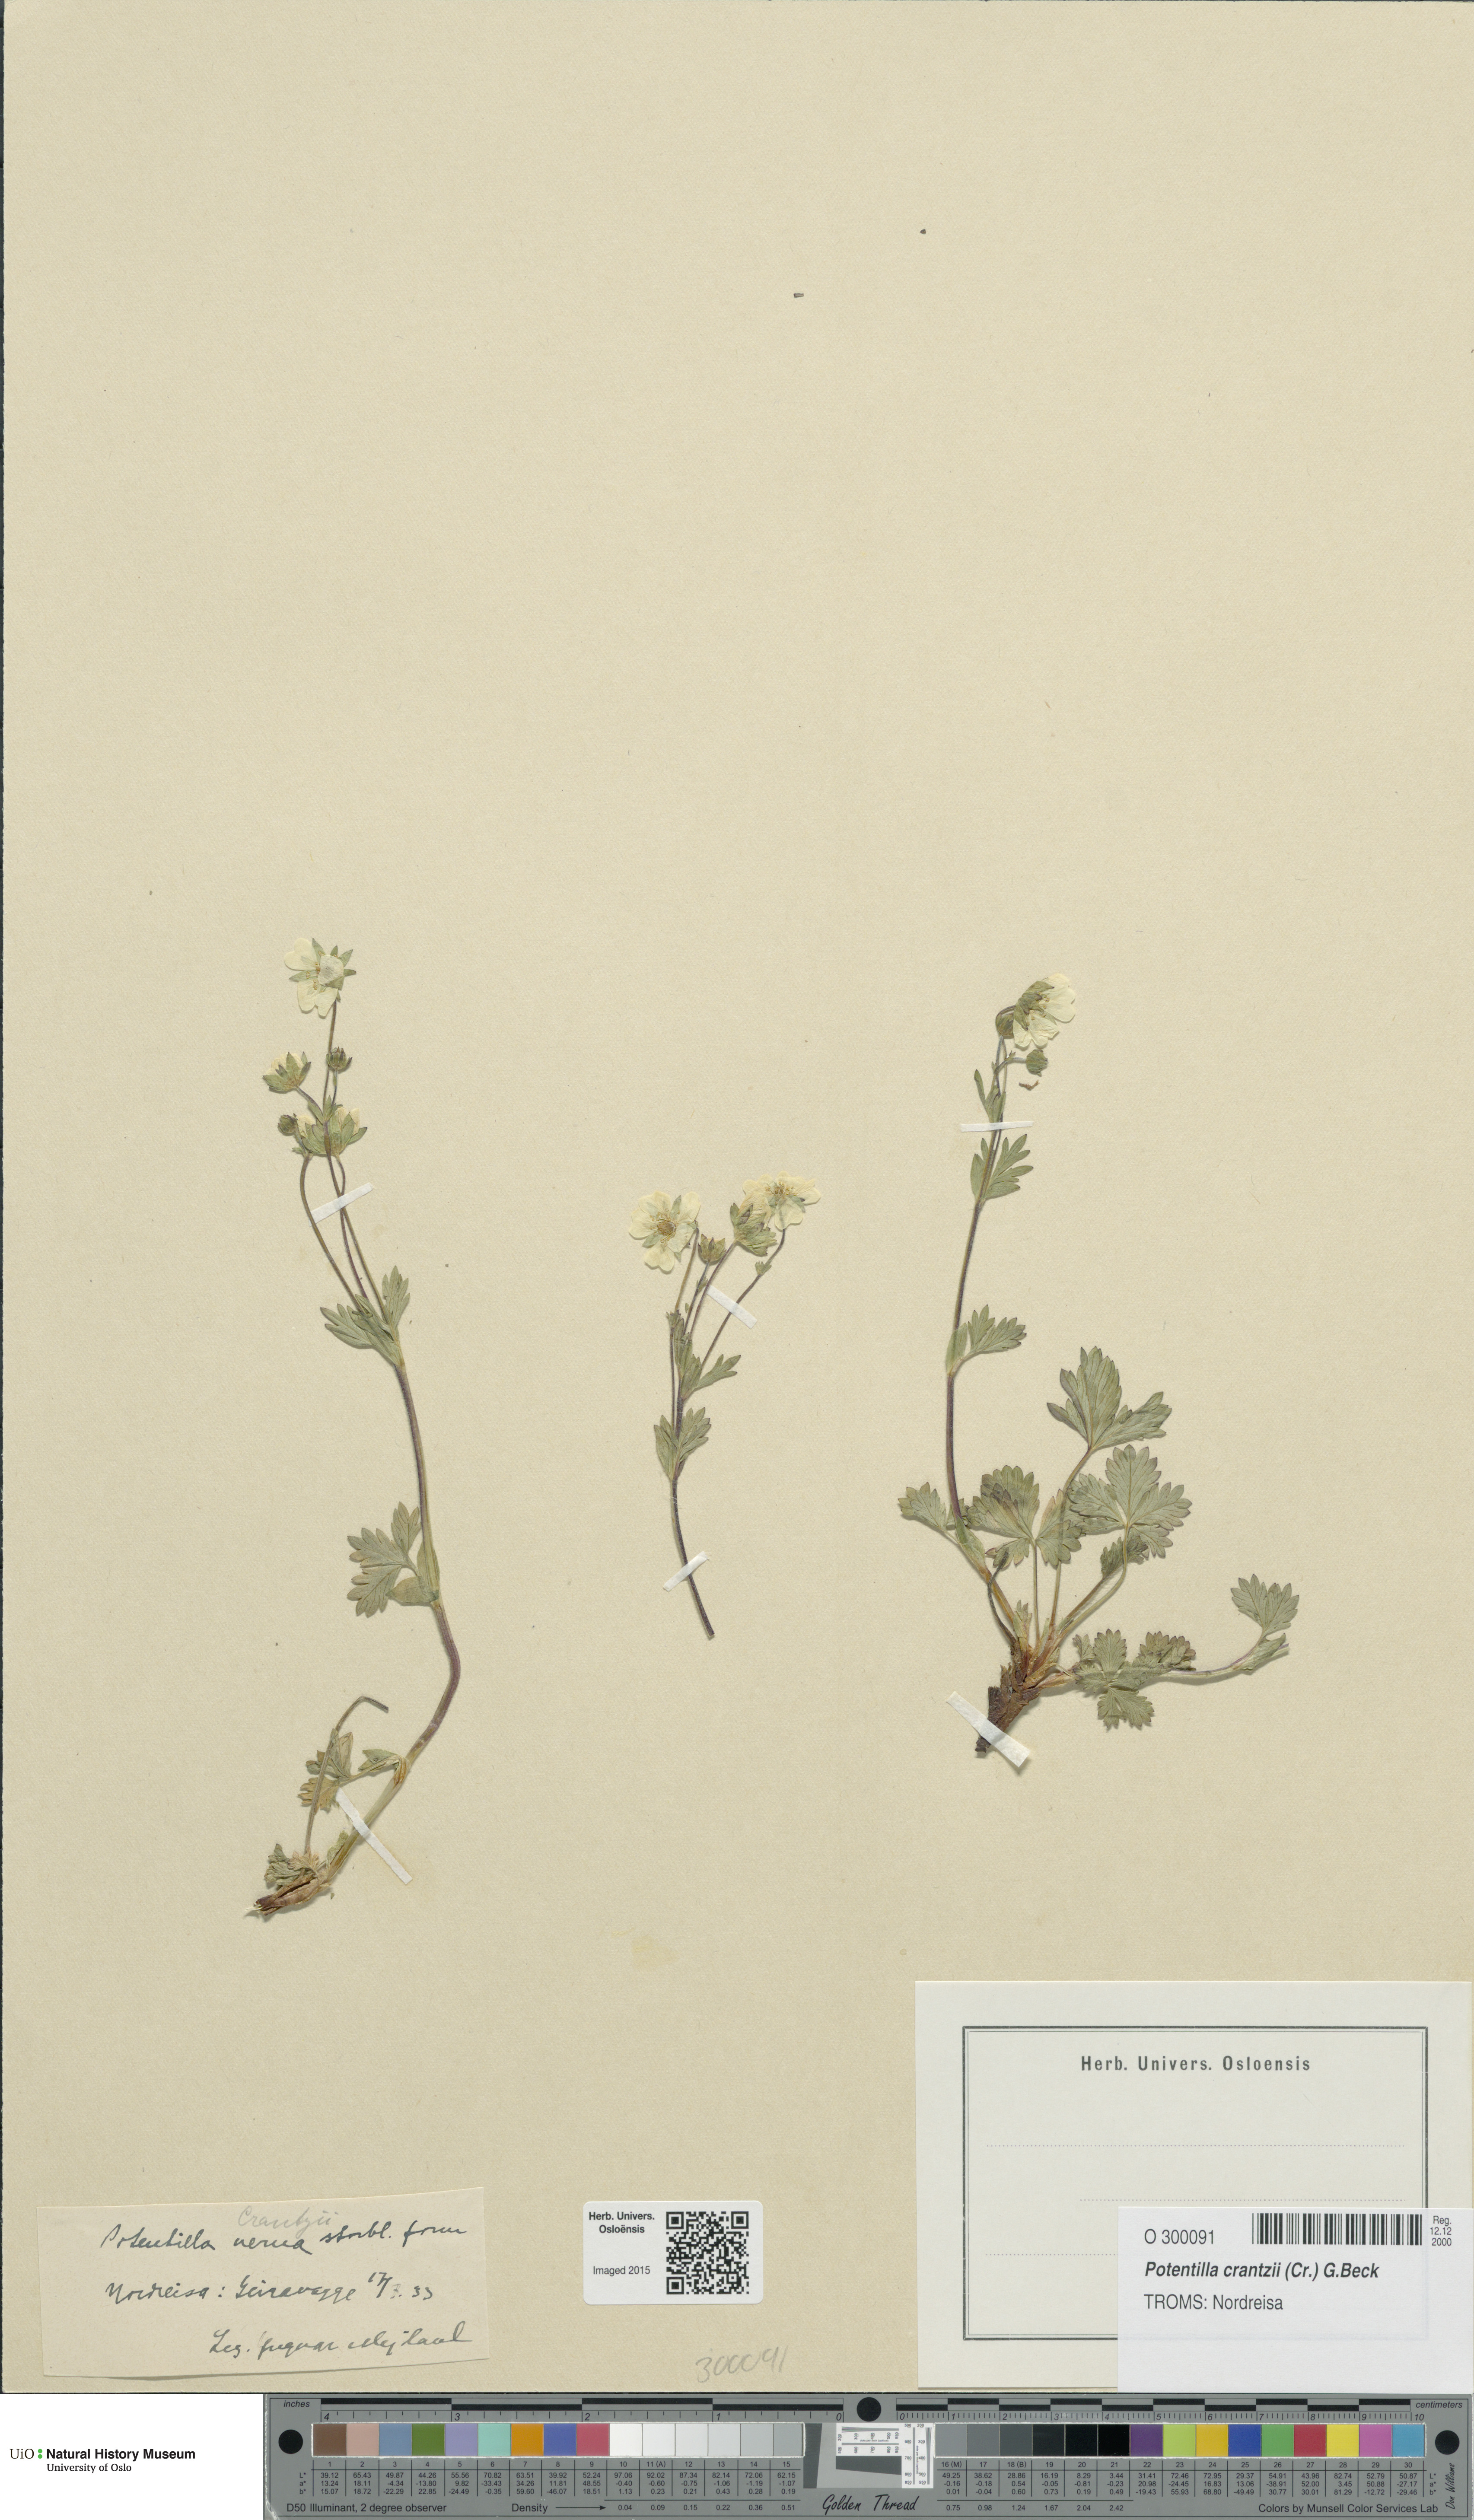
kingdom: Plantae
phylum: Tracheophyta
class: Magnoliopsida
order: Rosales
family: Rosaceae
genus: Potentilla
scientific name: Potentilla verna
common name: Spring cinquefoil
